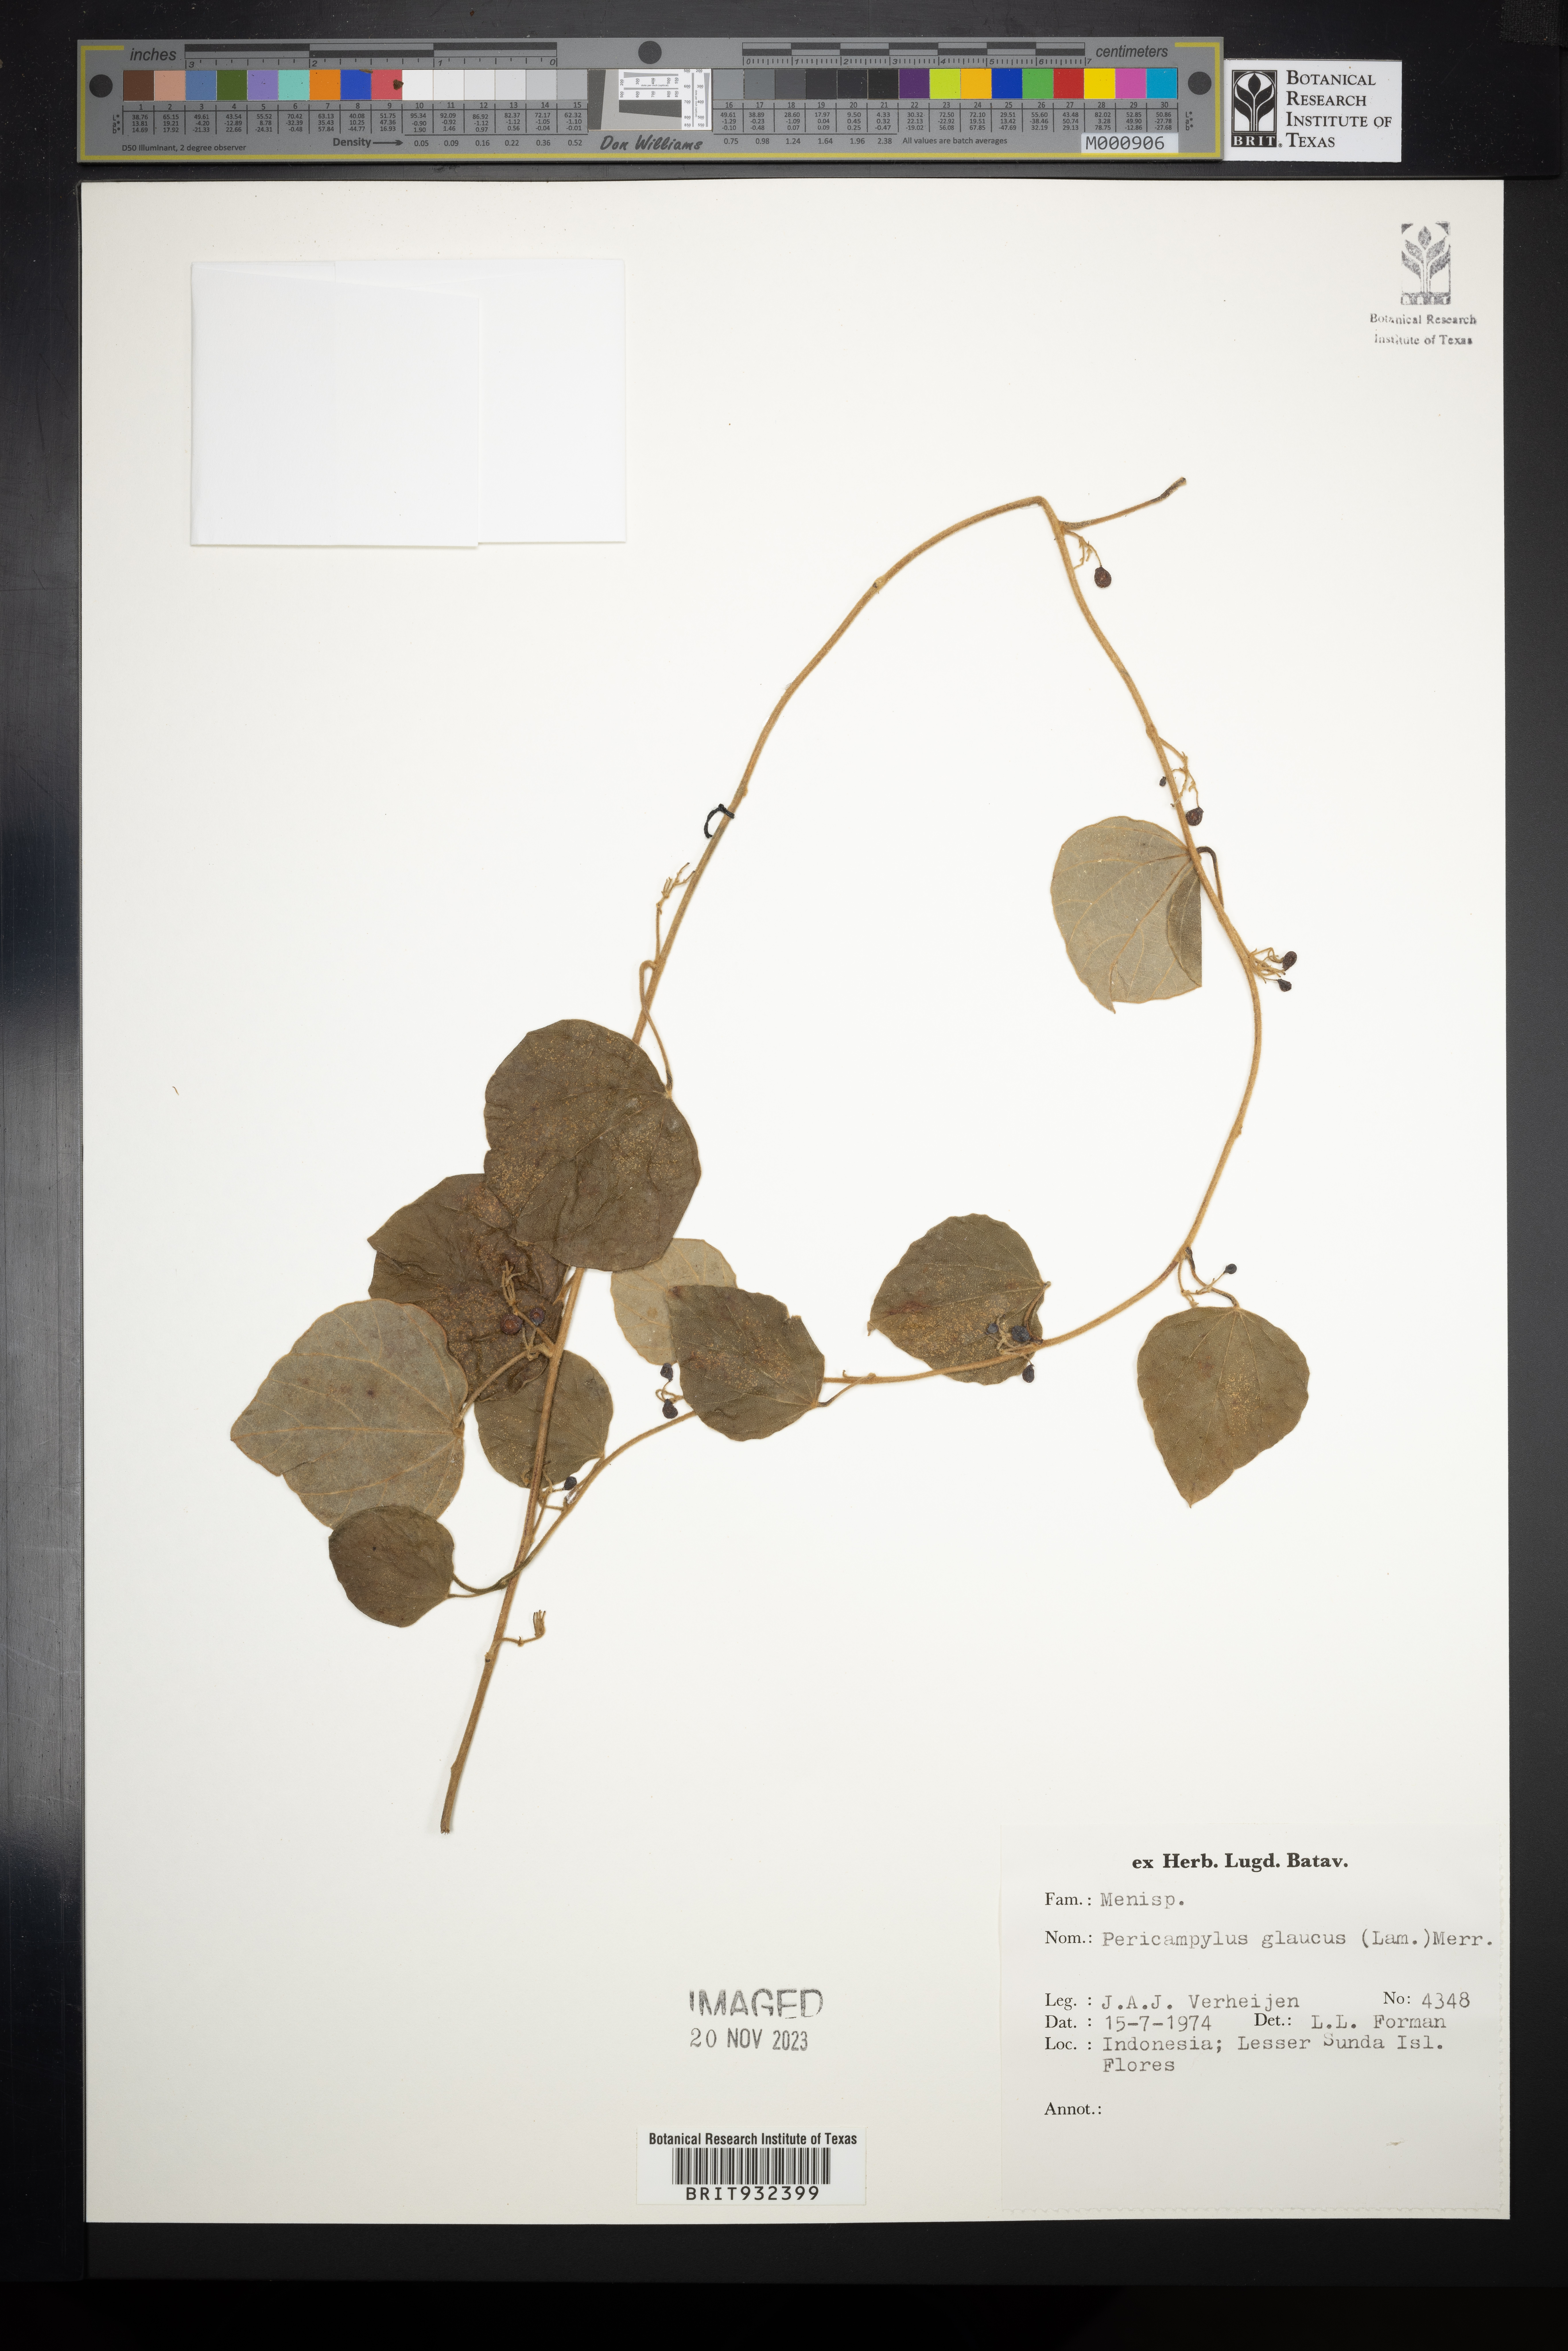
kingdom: Plantae
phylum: Tracheophyta
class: Magnoliopsida
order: Ranunculales
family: Menispermaceae
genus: Pericampylus
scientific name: Pericampylus
